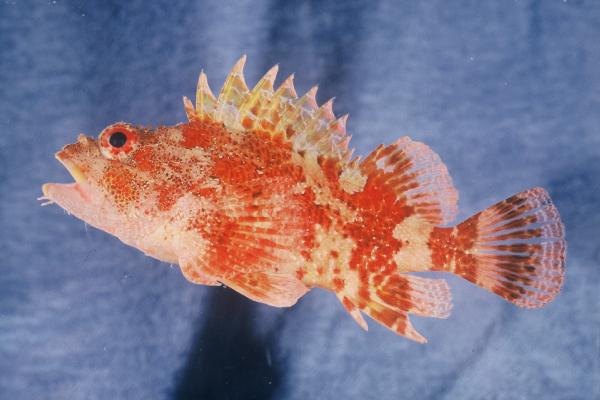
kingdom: Animalia
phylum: Chordata
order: Scorpaeniformes
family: Scorpaenidae
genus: Scorpaena
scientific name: Scorpaena maderensis
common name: Madeira rockfish
